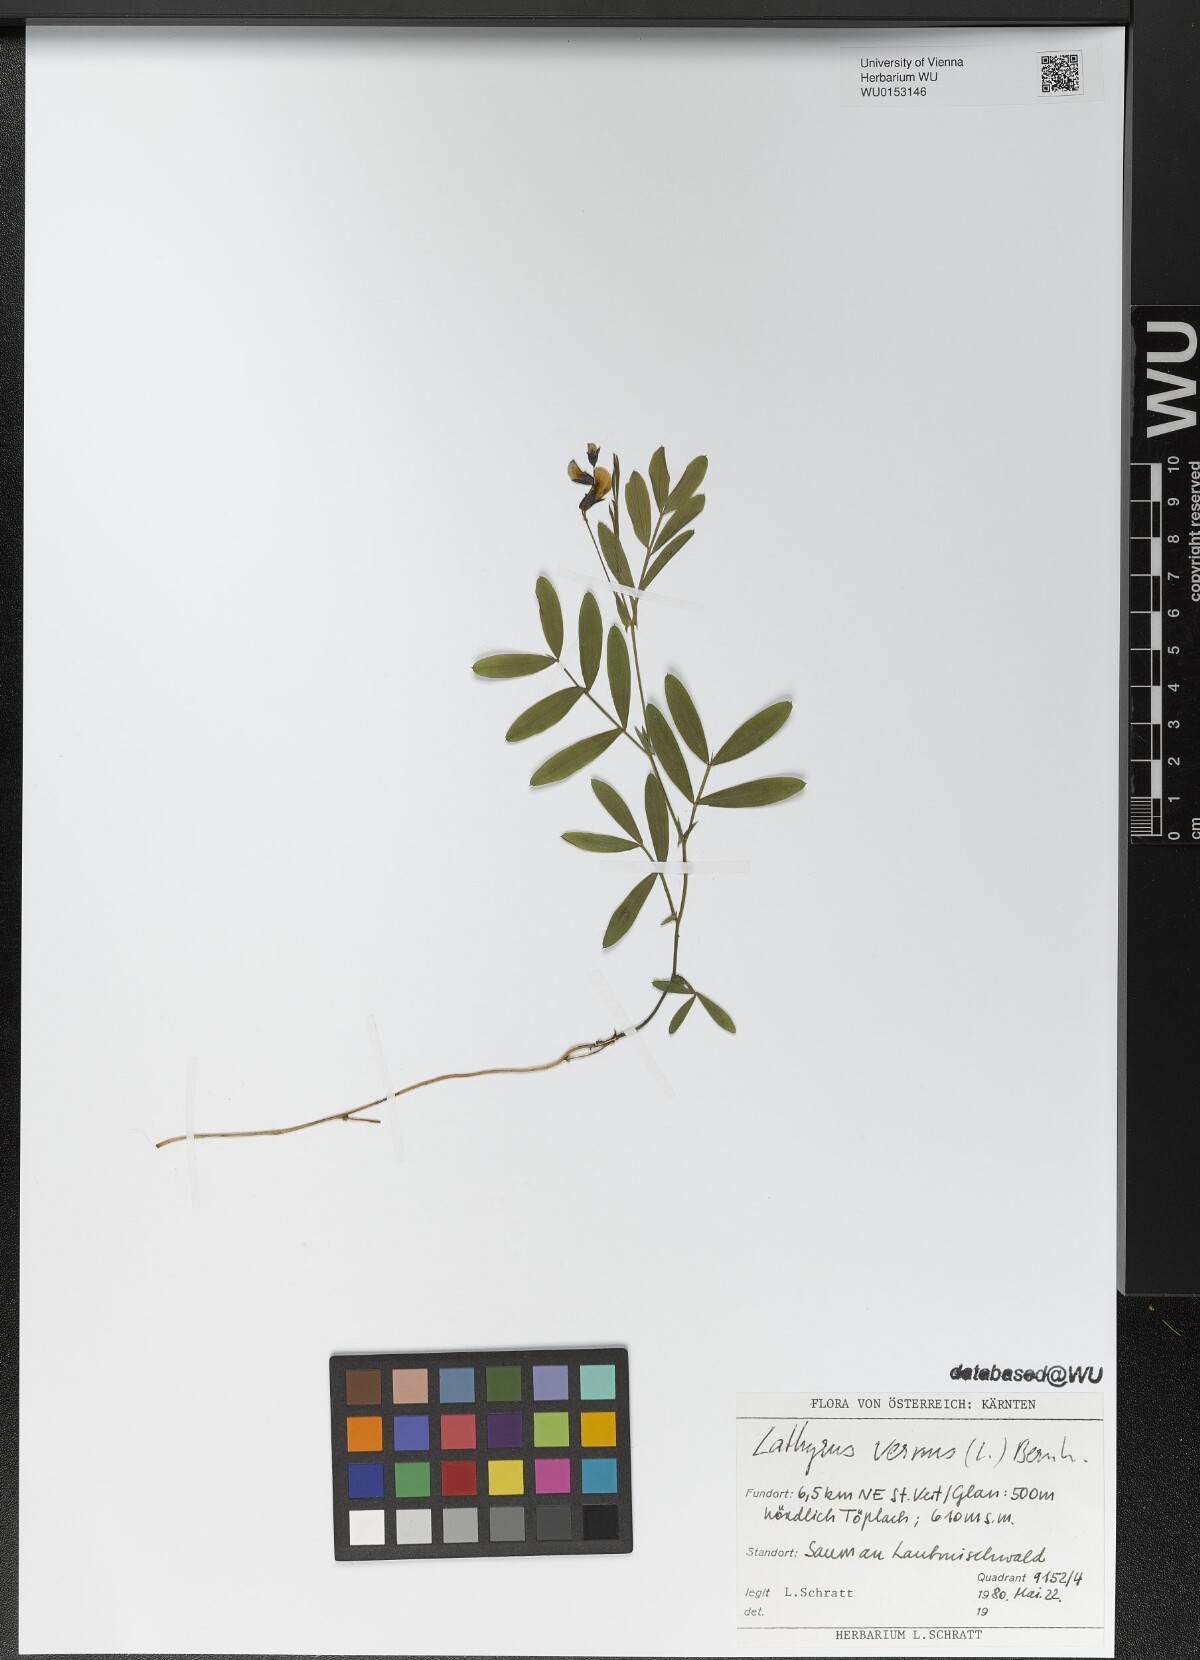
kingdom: Plantae
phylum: Tracheophyta
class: Magnoliopsida
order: Fabales
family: Fabaceae
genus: Lathyrus
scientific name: Lathyrus vernus
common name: Spring pea
